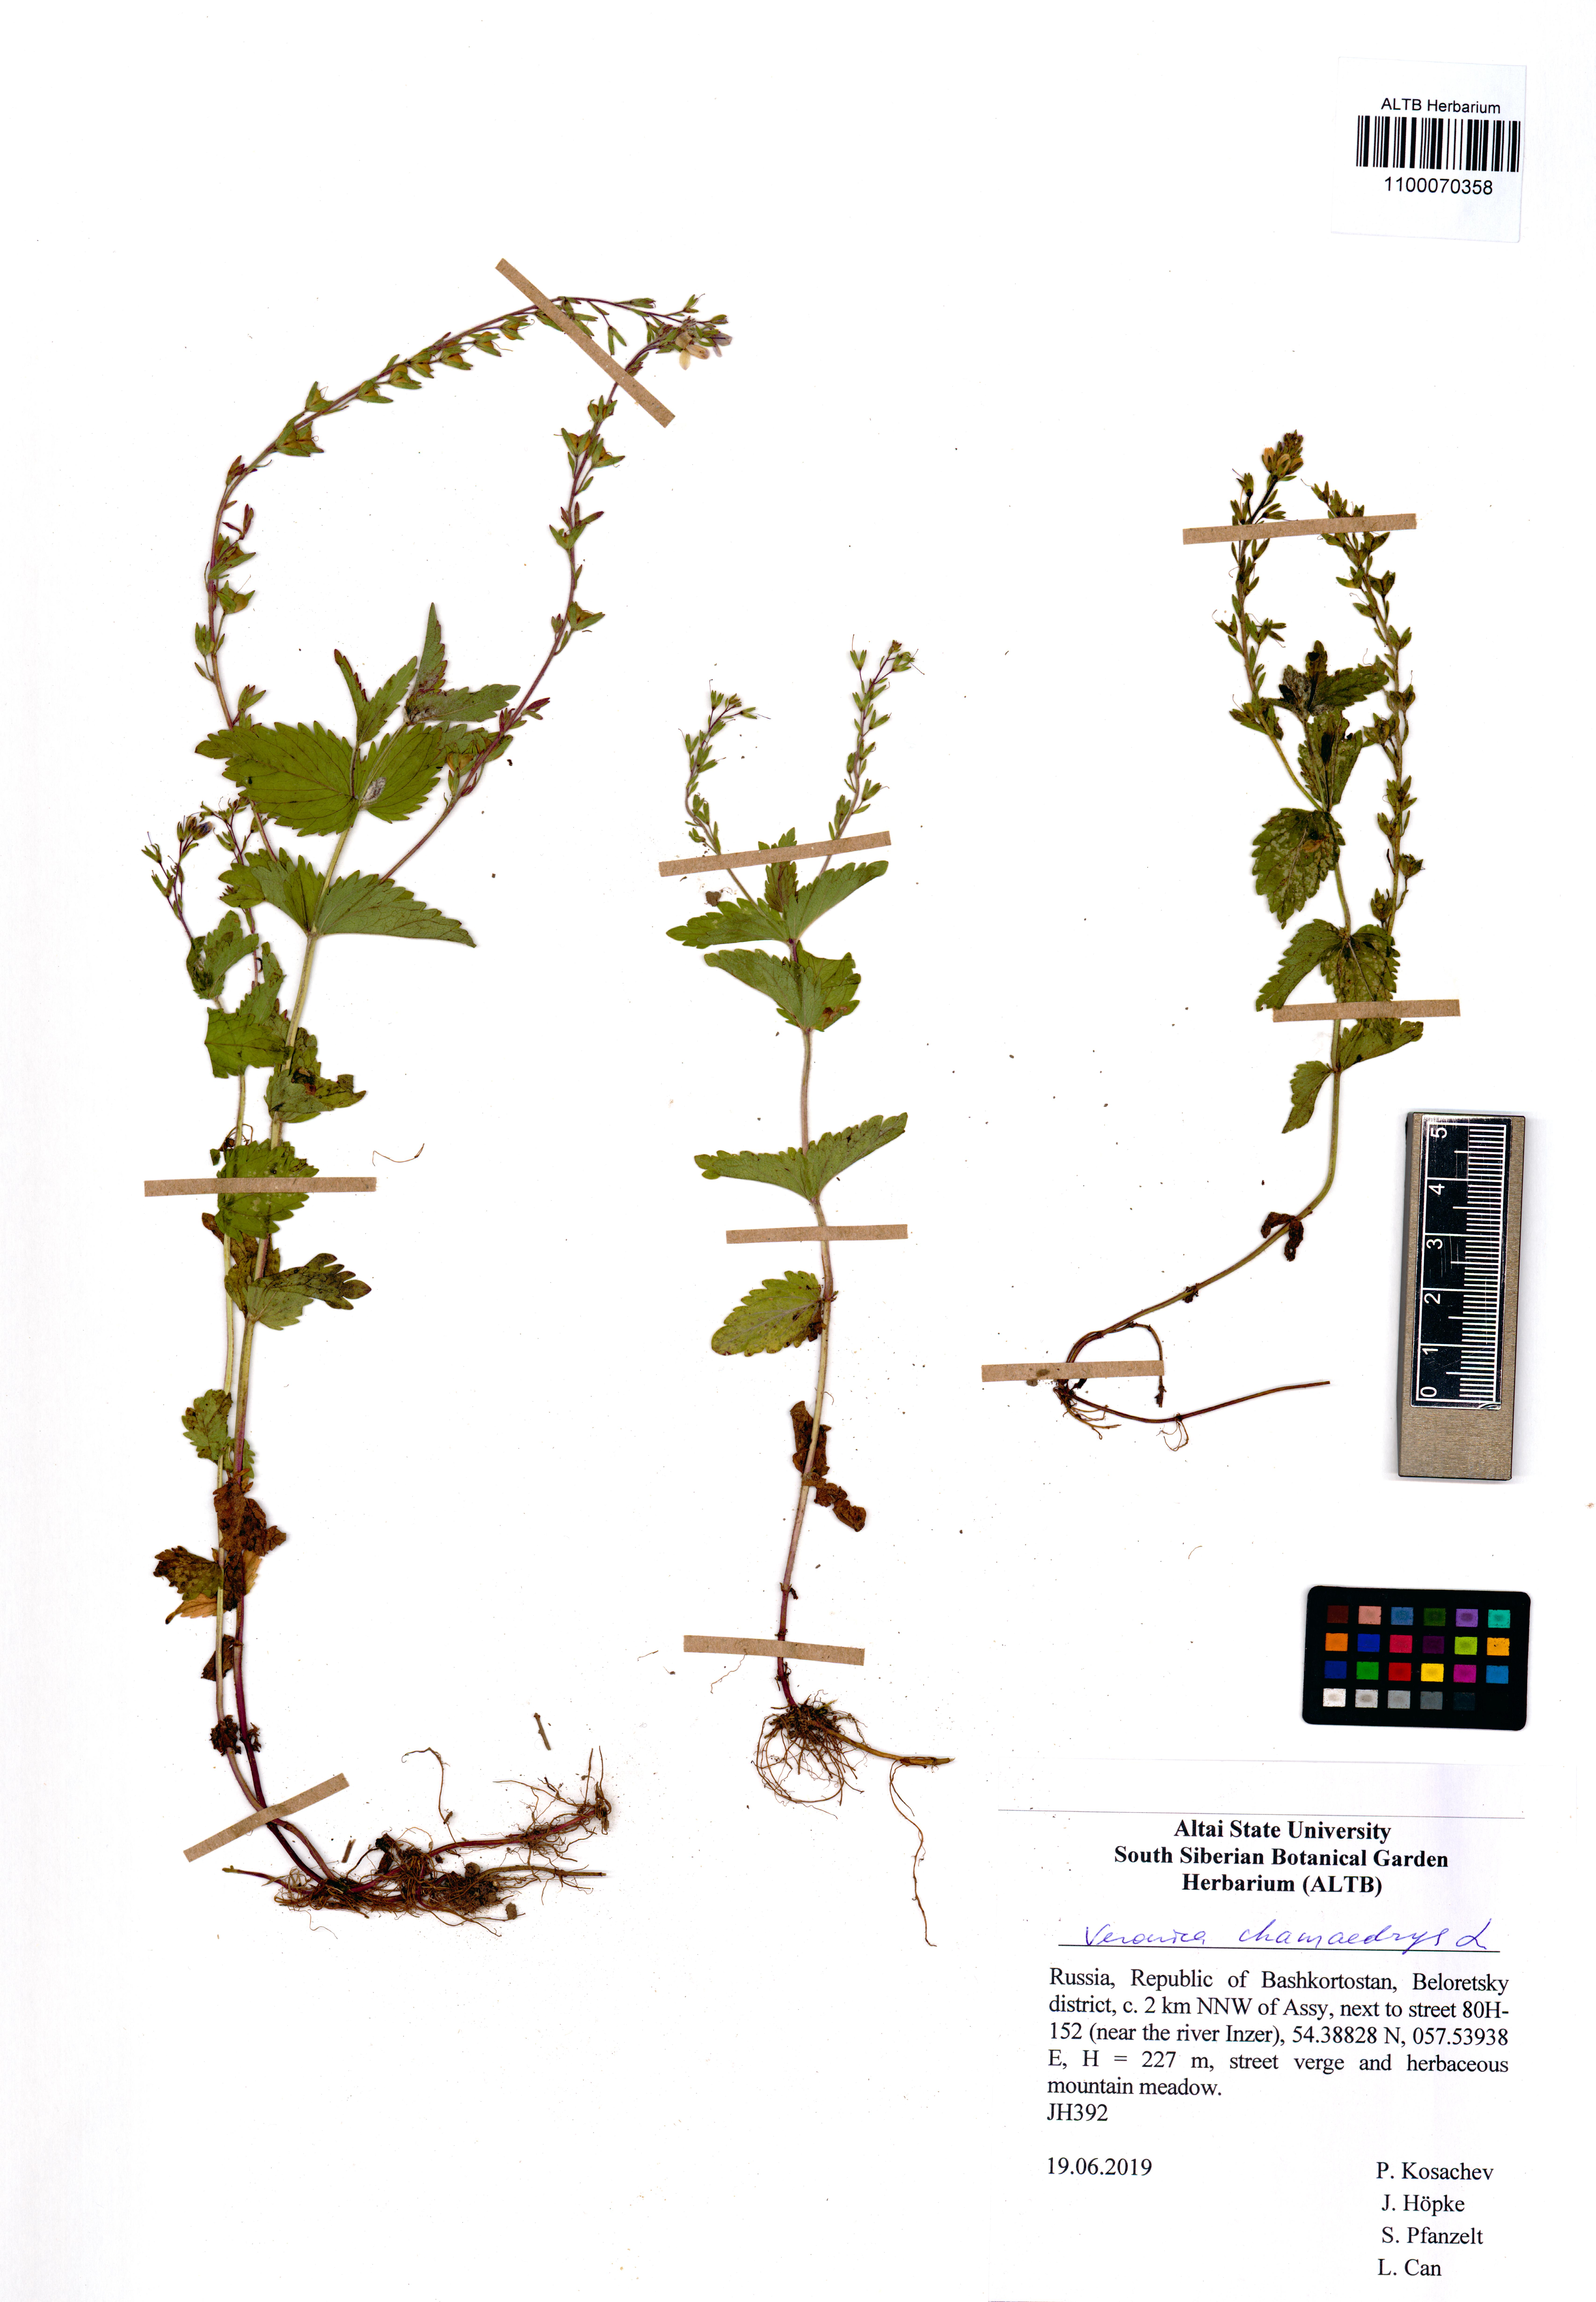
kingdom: Plantae
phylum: Tracheophyta
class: Magnoliopsida
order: Lamiales
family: Plantaginaceae
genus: Veronica
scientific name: Veronica chamaedrys
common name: Germander speedwell
